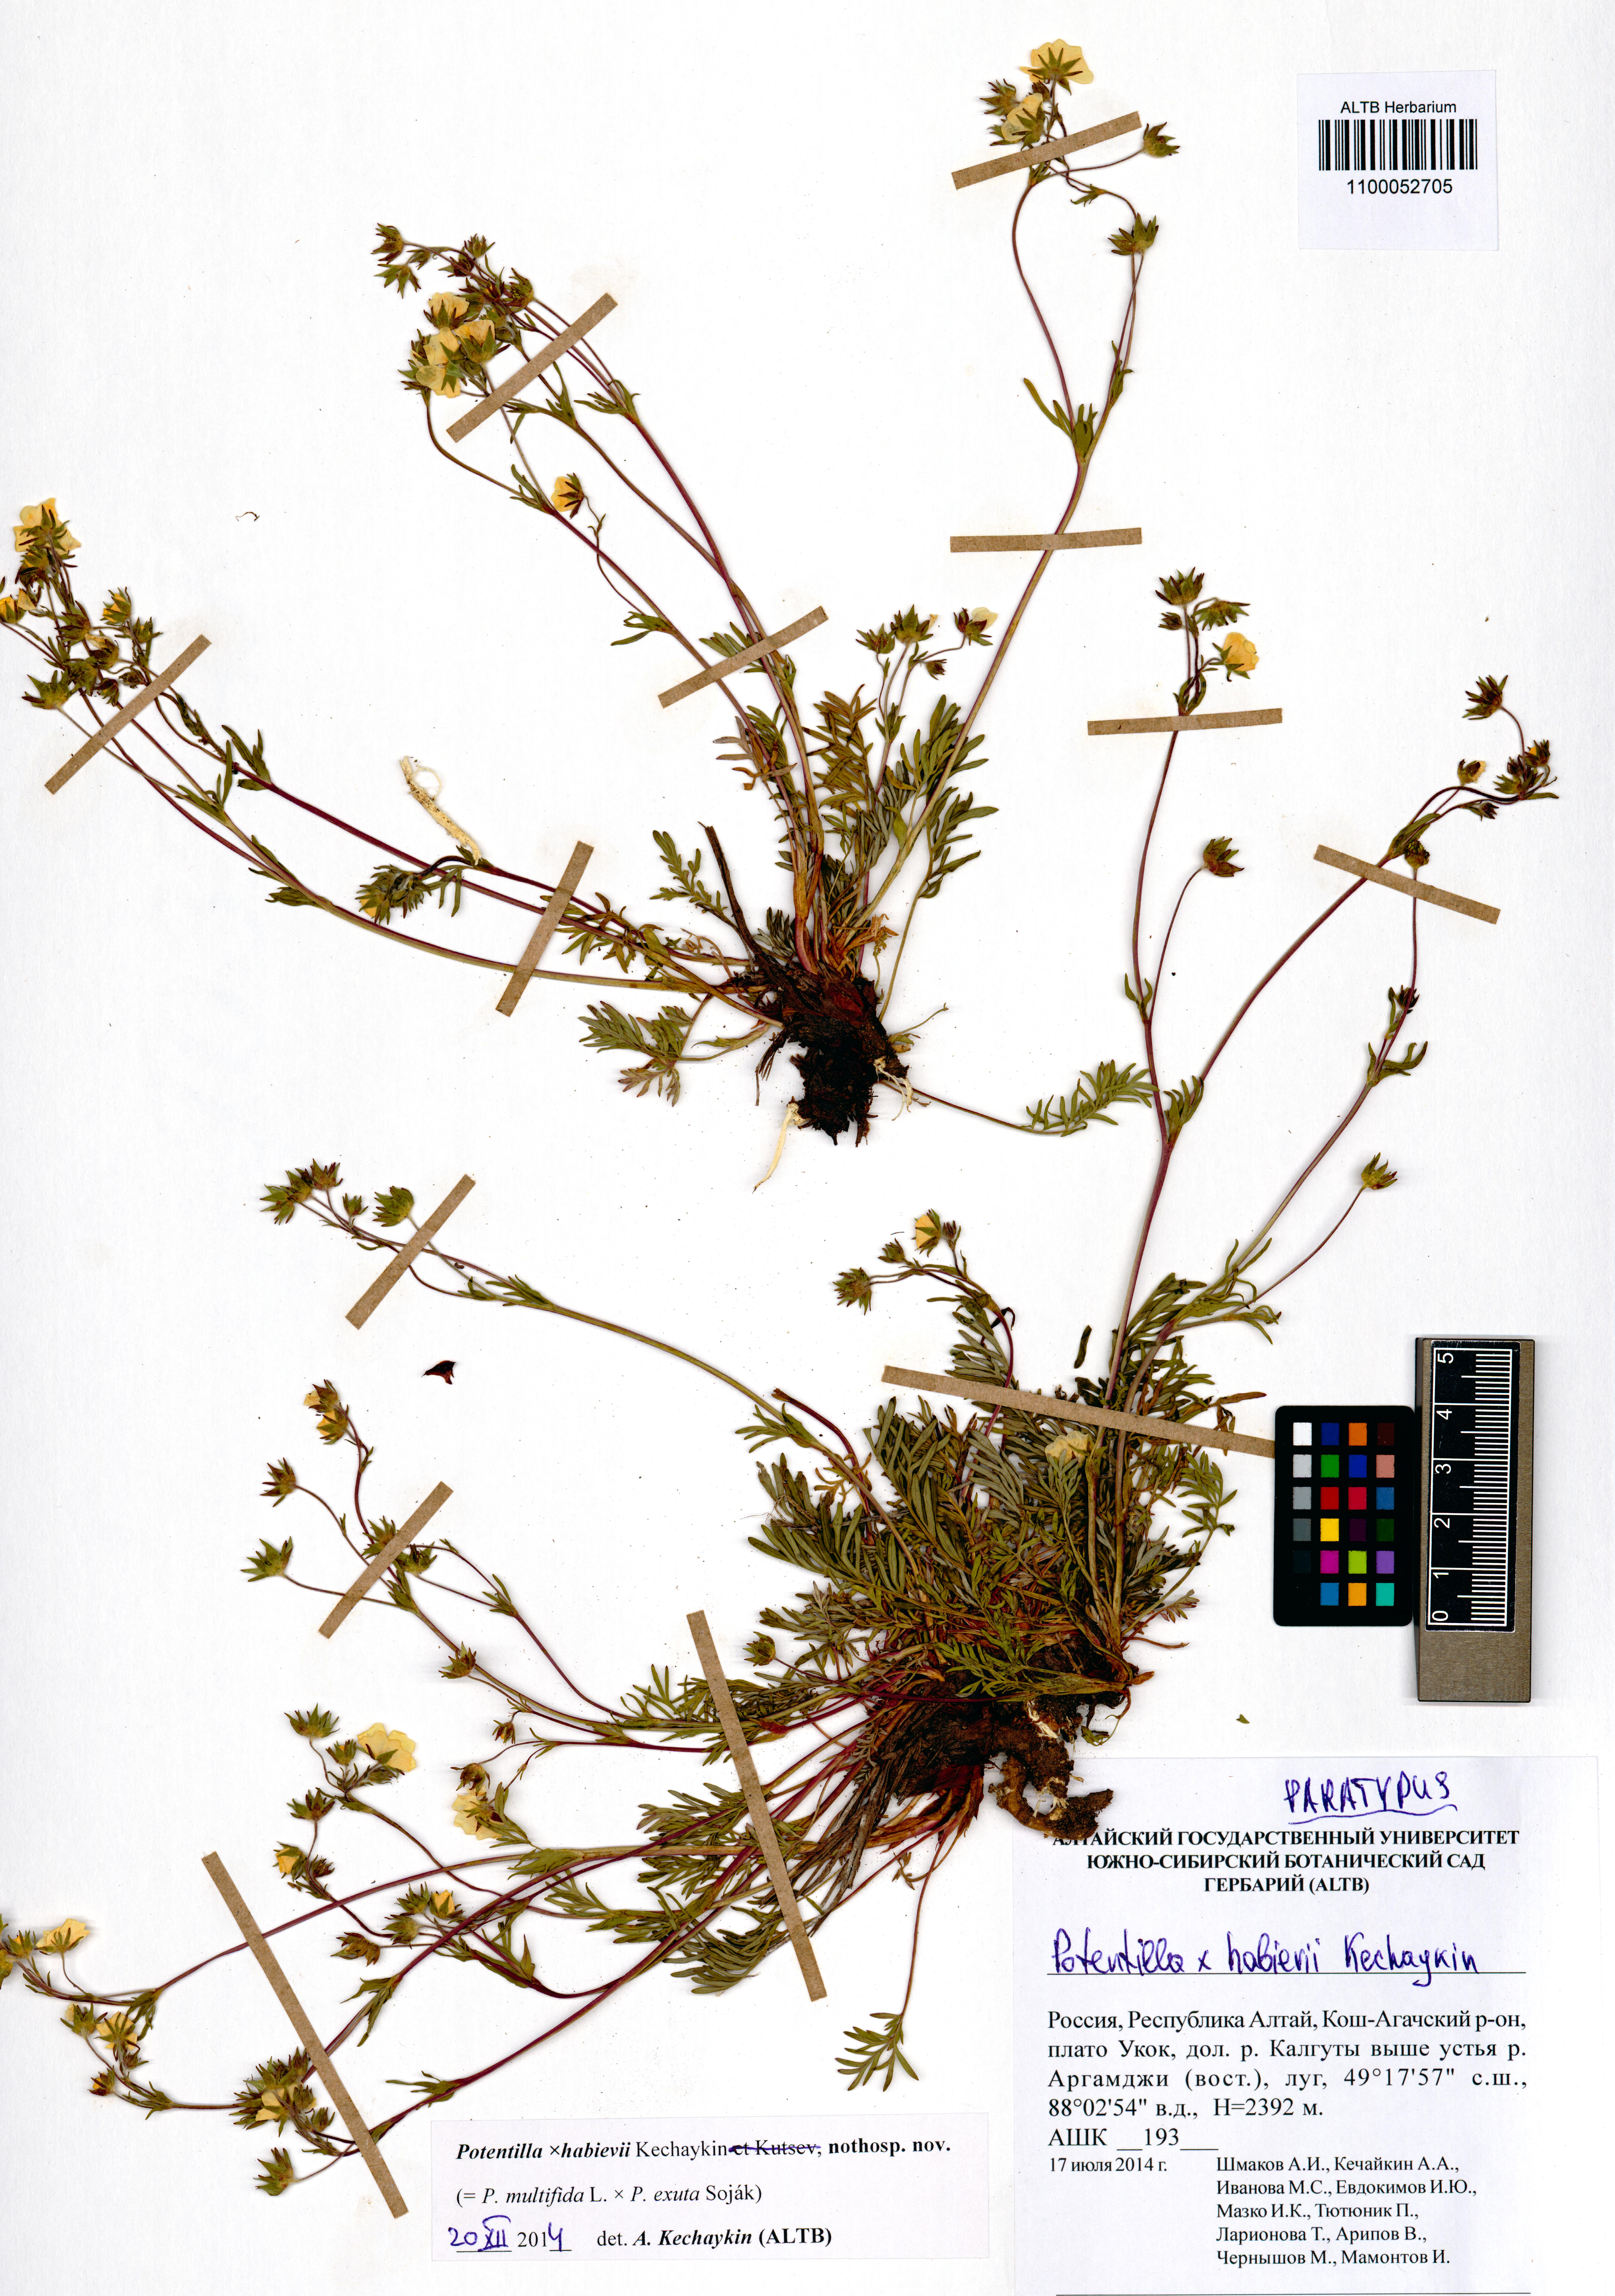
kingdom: Plantae
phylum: Tracheophyta
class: Magnoliopsida
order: Rosales
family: Rosaceae
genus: Potentilla
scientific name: Potentilla habievii
